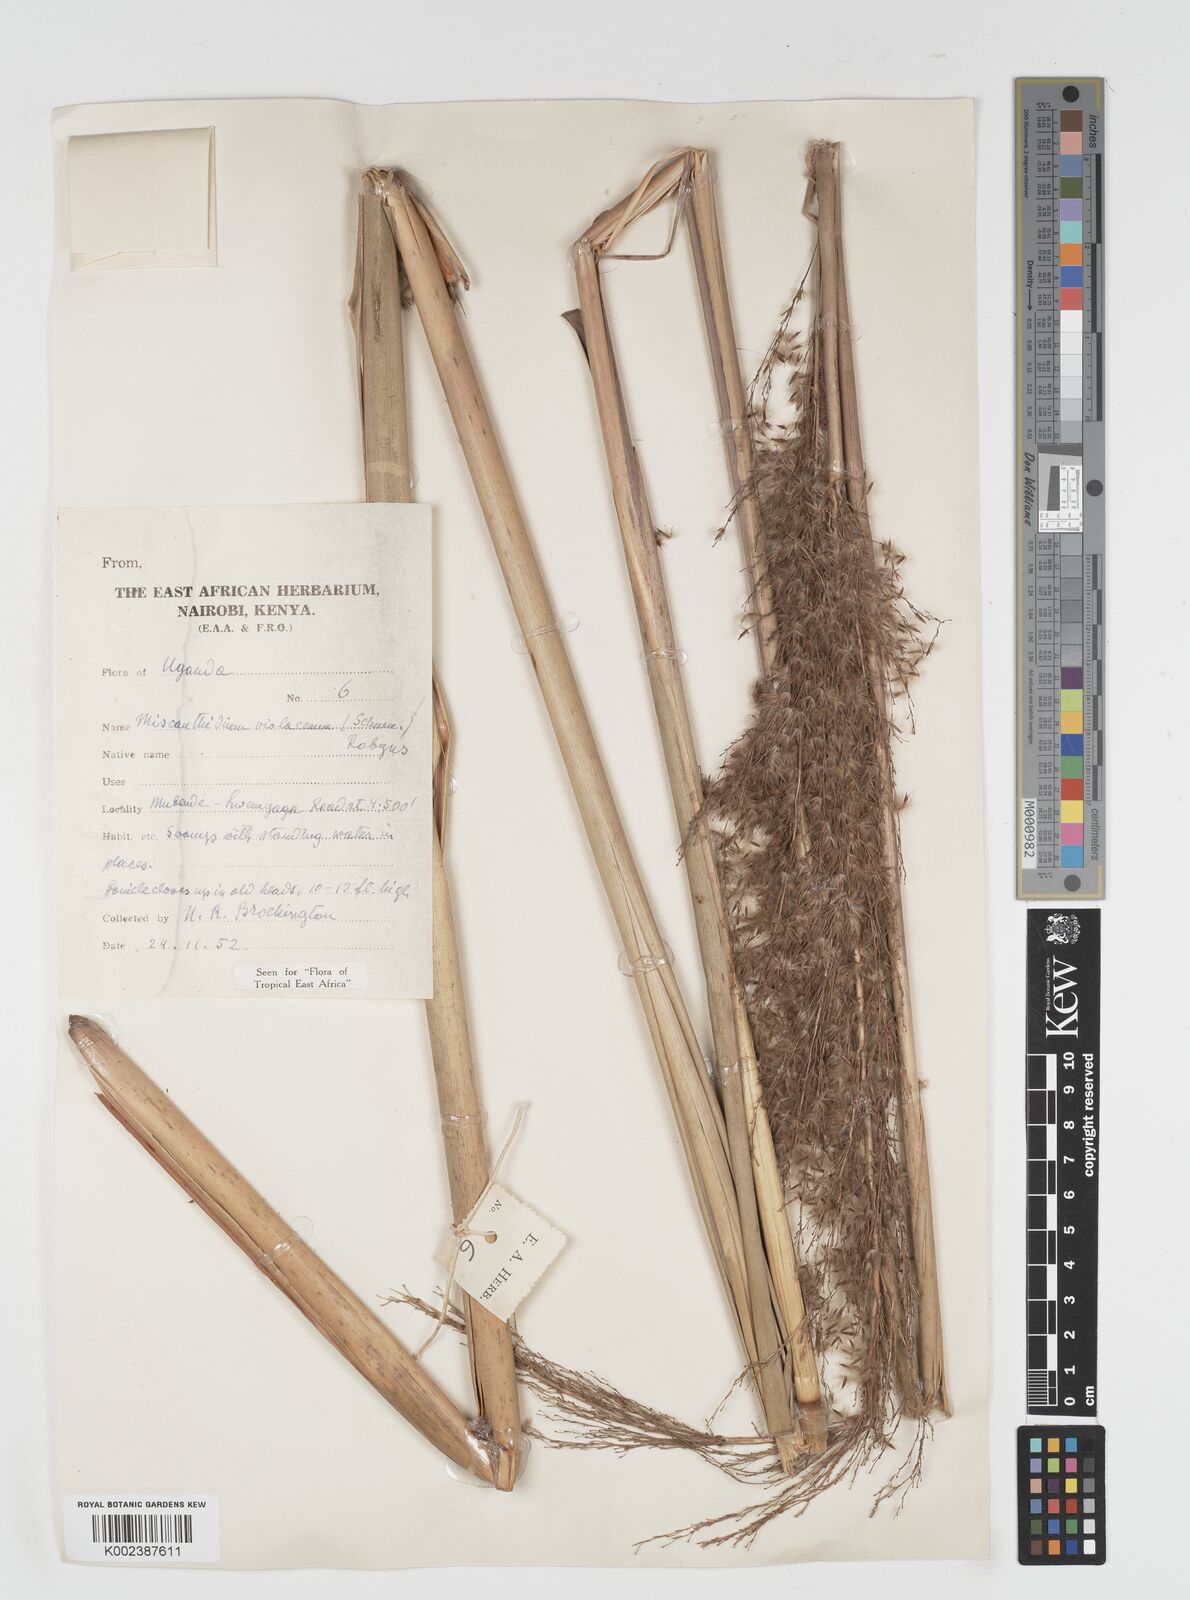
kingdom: Plantae
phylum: Tracheophyta
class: Liliopsida
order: Poales
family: Poaceae
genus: Miscanthidium
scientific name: Miscanthidium violaceum
